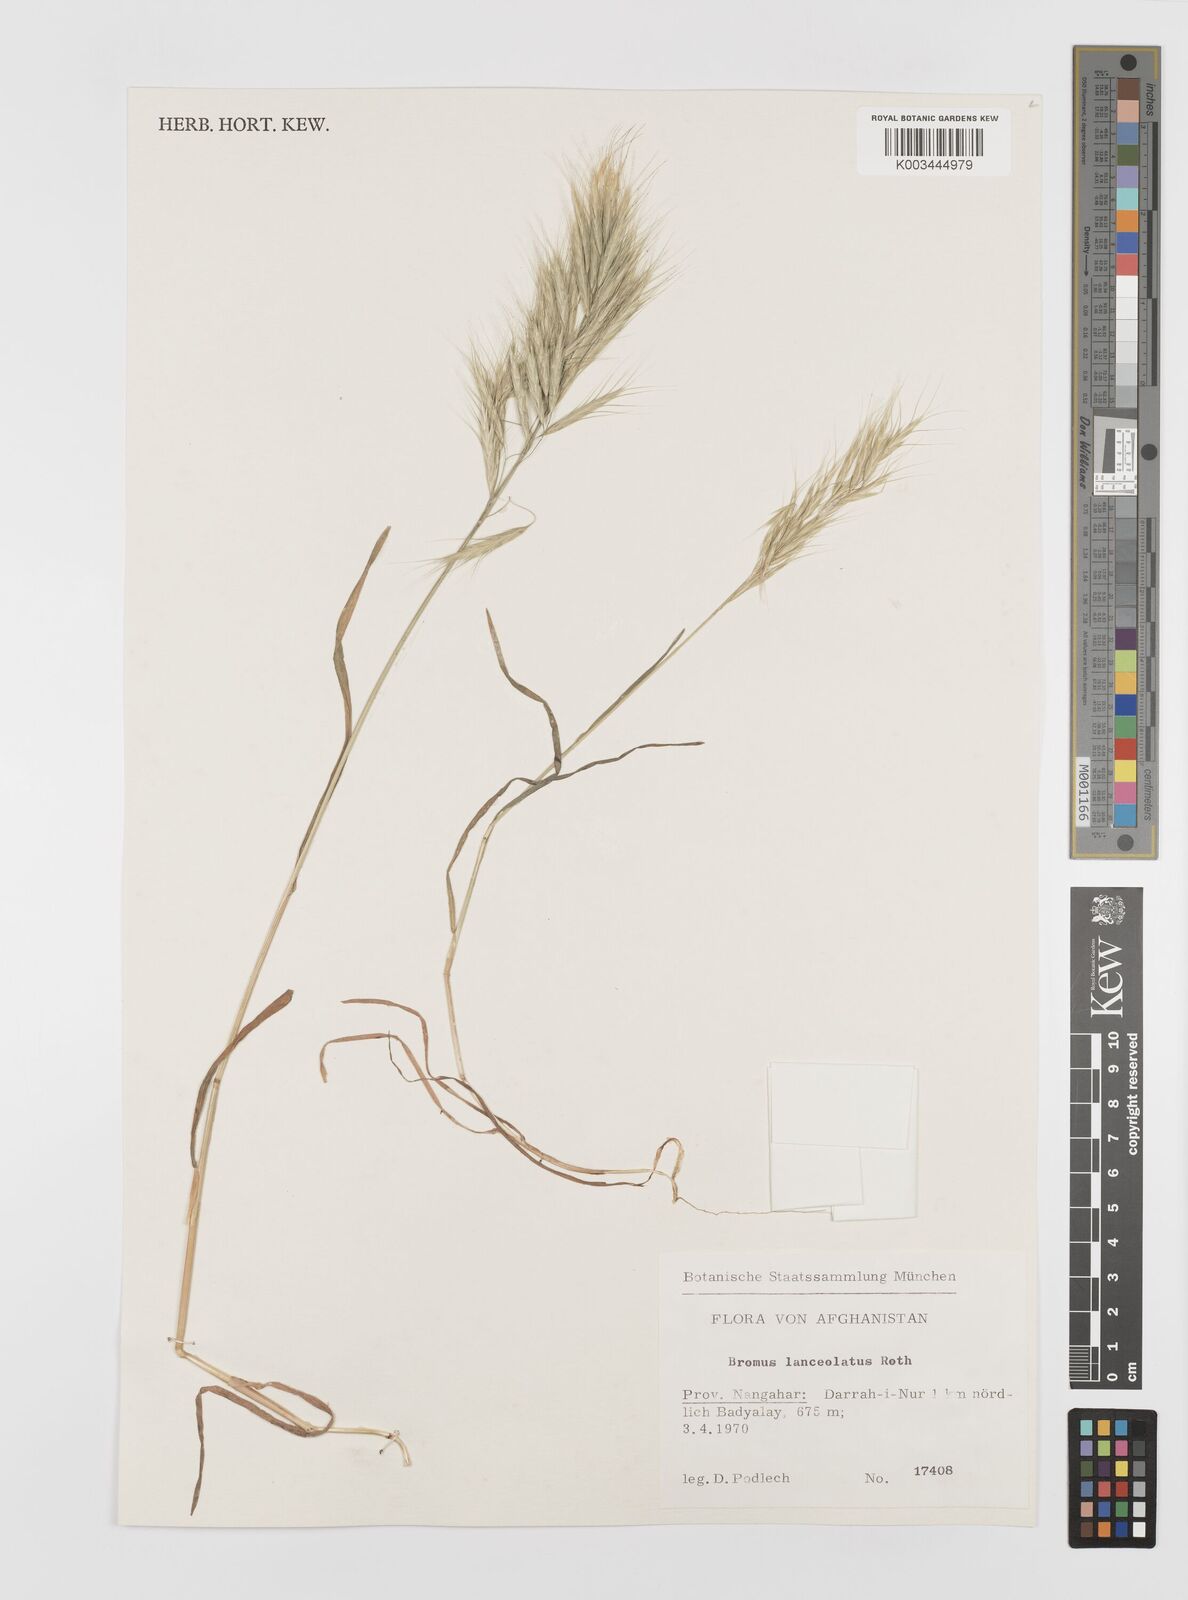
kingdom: Plantae
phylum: Tracheophyta
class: Liliopsida
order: Poales
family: Poaceae
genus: Bromus
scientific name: Bromus lanceolatus
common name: Mediterranean brome
